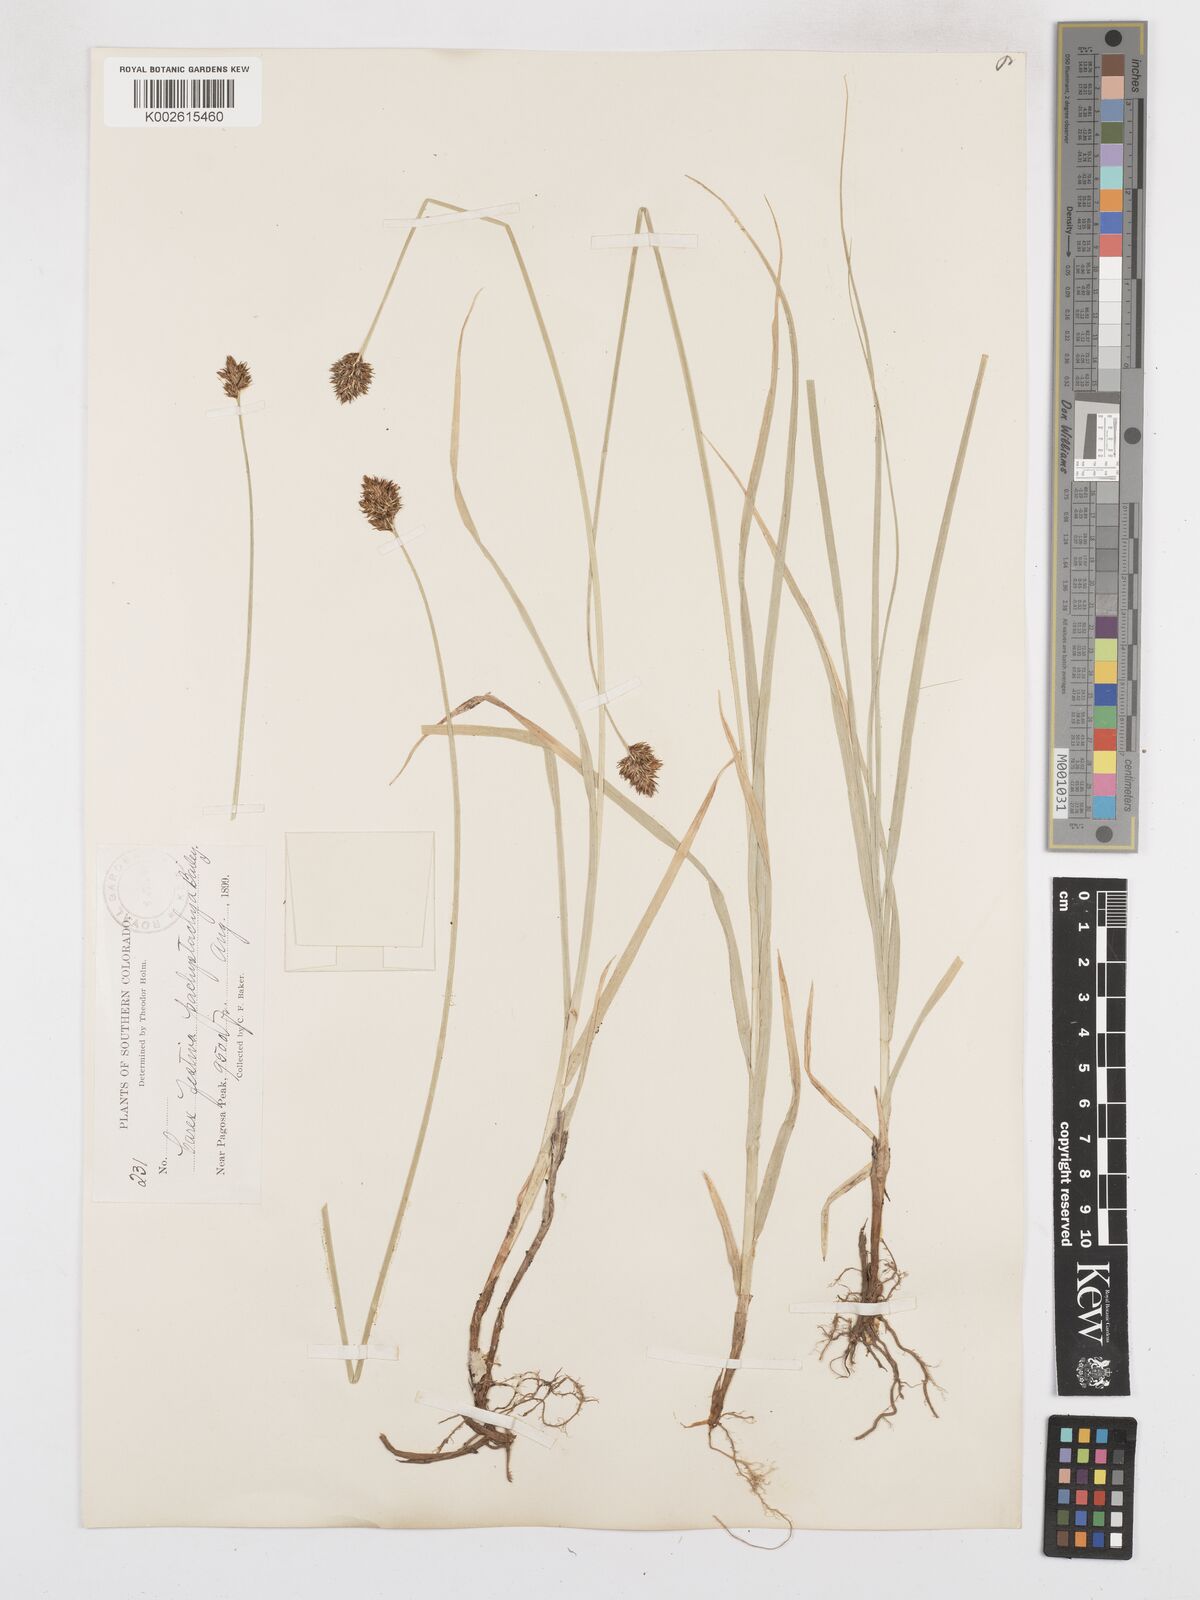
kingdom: Plantae
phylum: Tracheophyta
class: Liliopsida
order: Poales
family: Cyperaceae
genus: Carex
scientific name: Carex haydeniana
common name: Cloud sedge
